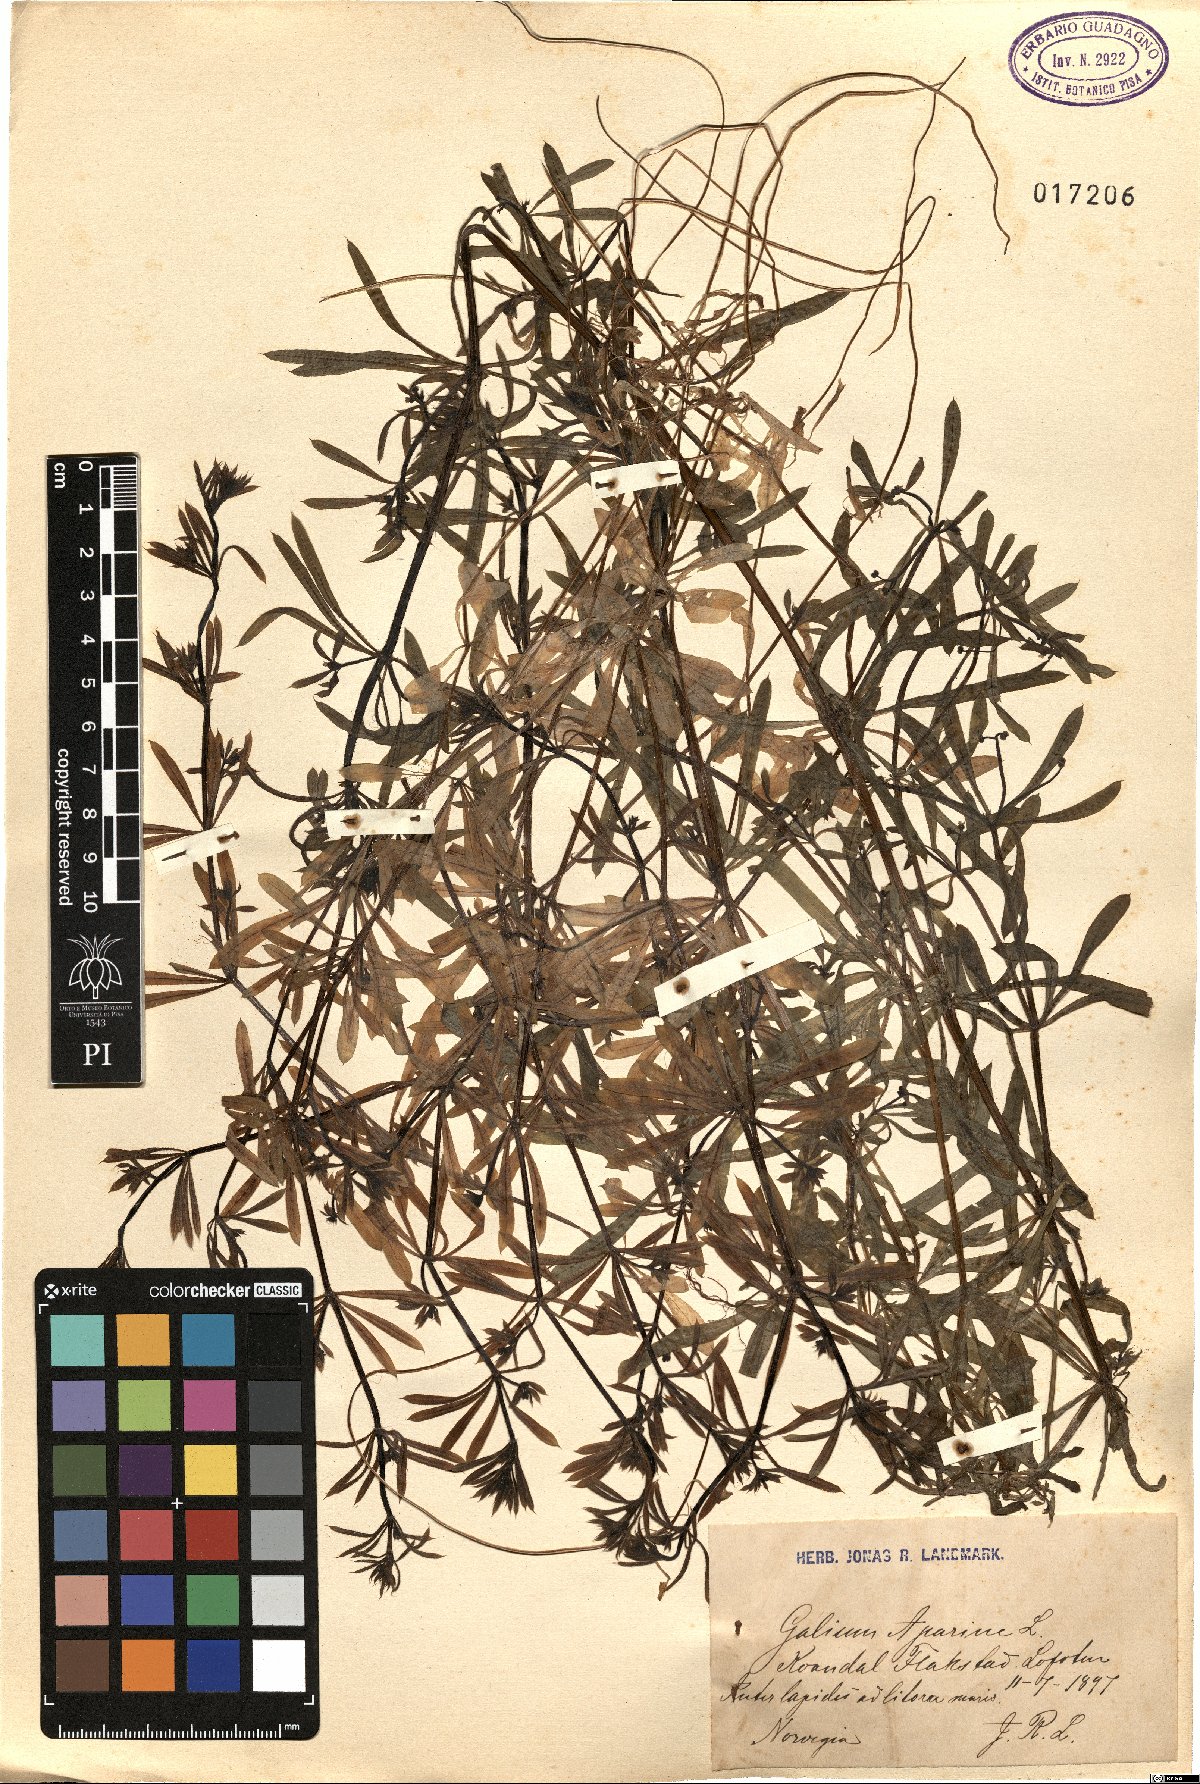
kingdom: Plantae
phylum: Tracheophyta
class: Magnoliopsida
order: Gentianales
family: Rubiaceae
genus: Galium
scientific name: Galium aparine
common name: Cleavers
